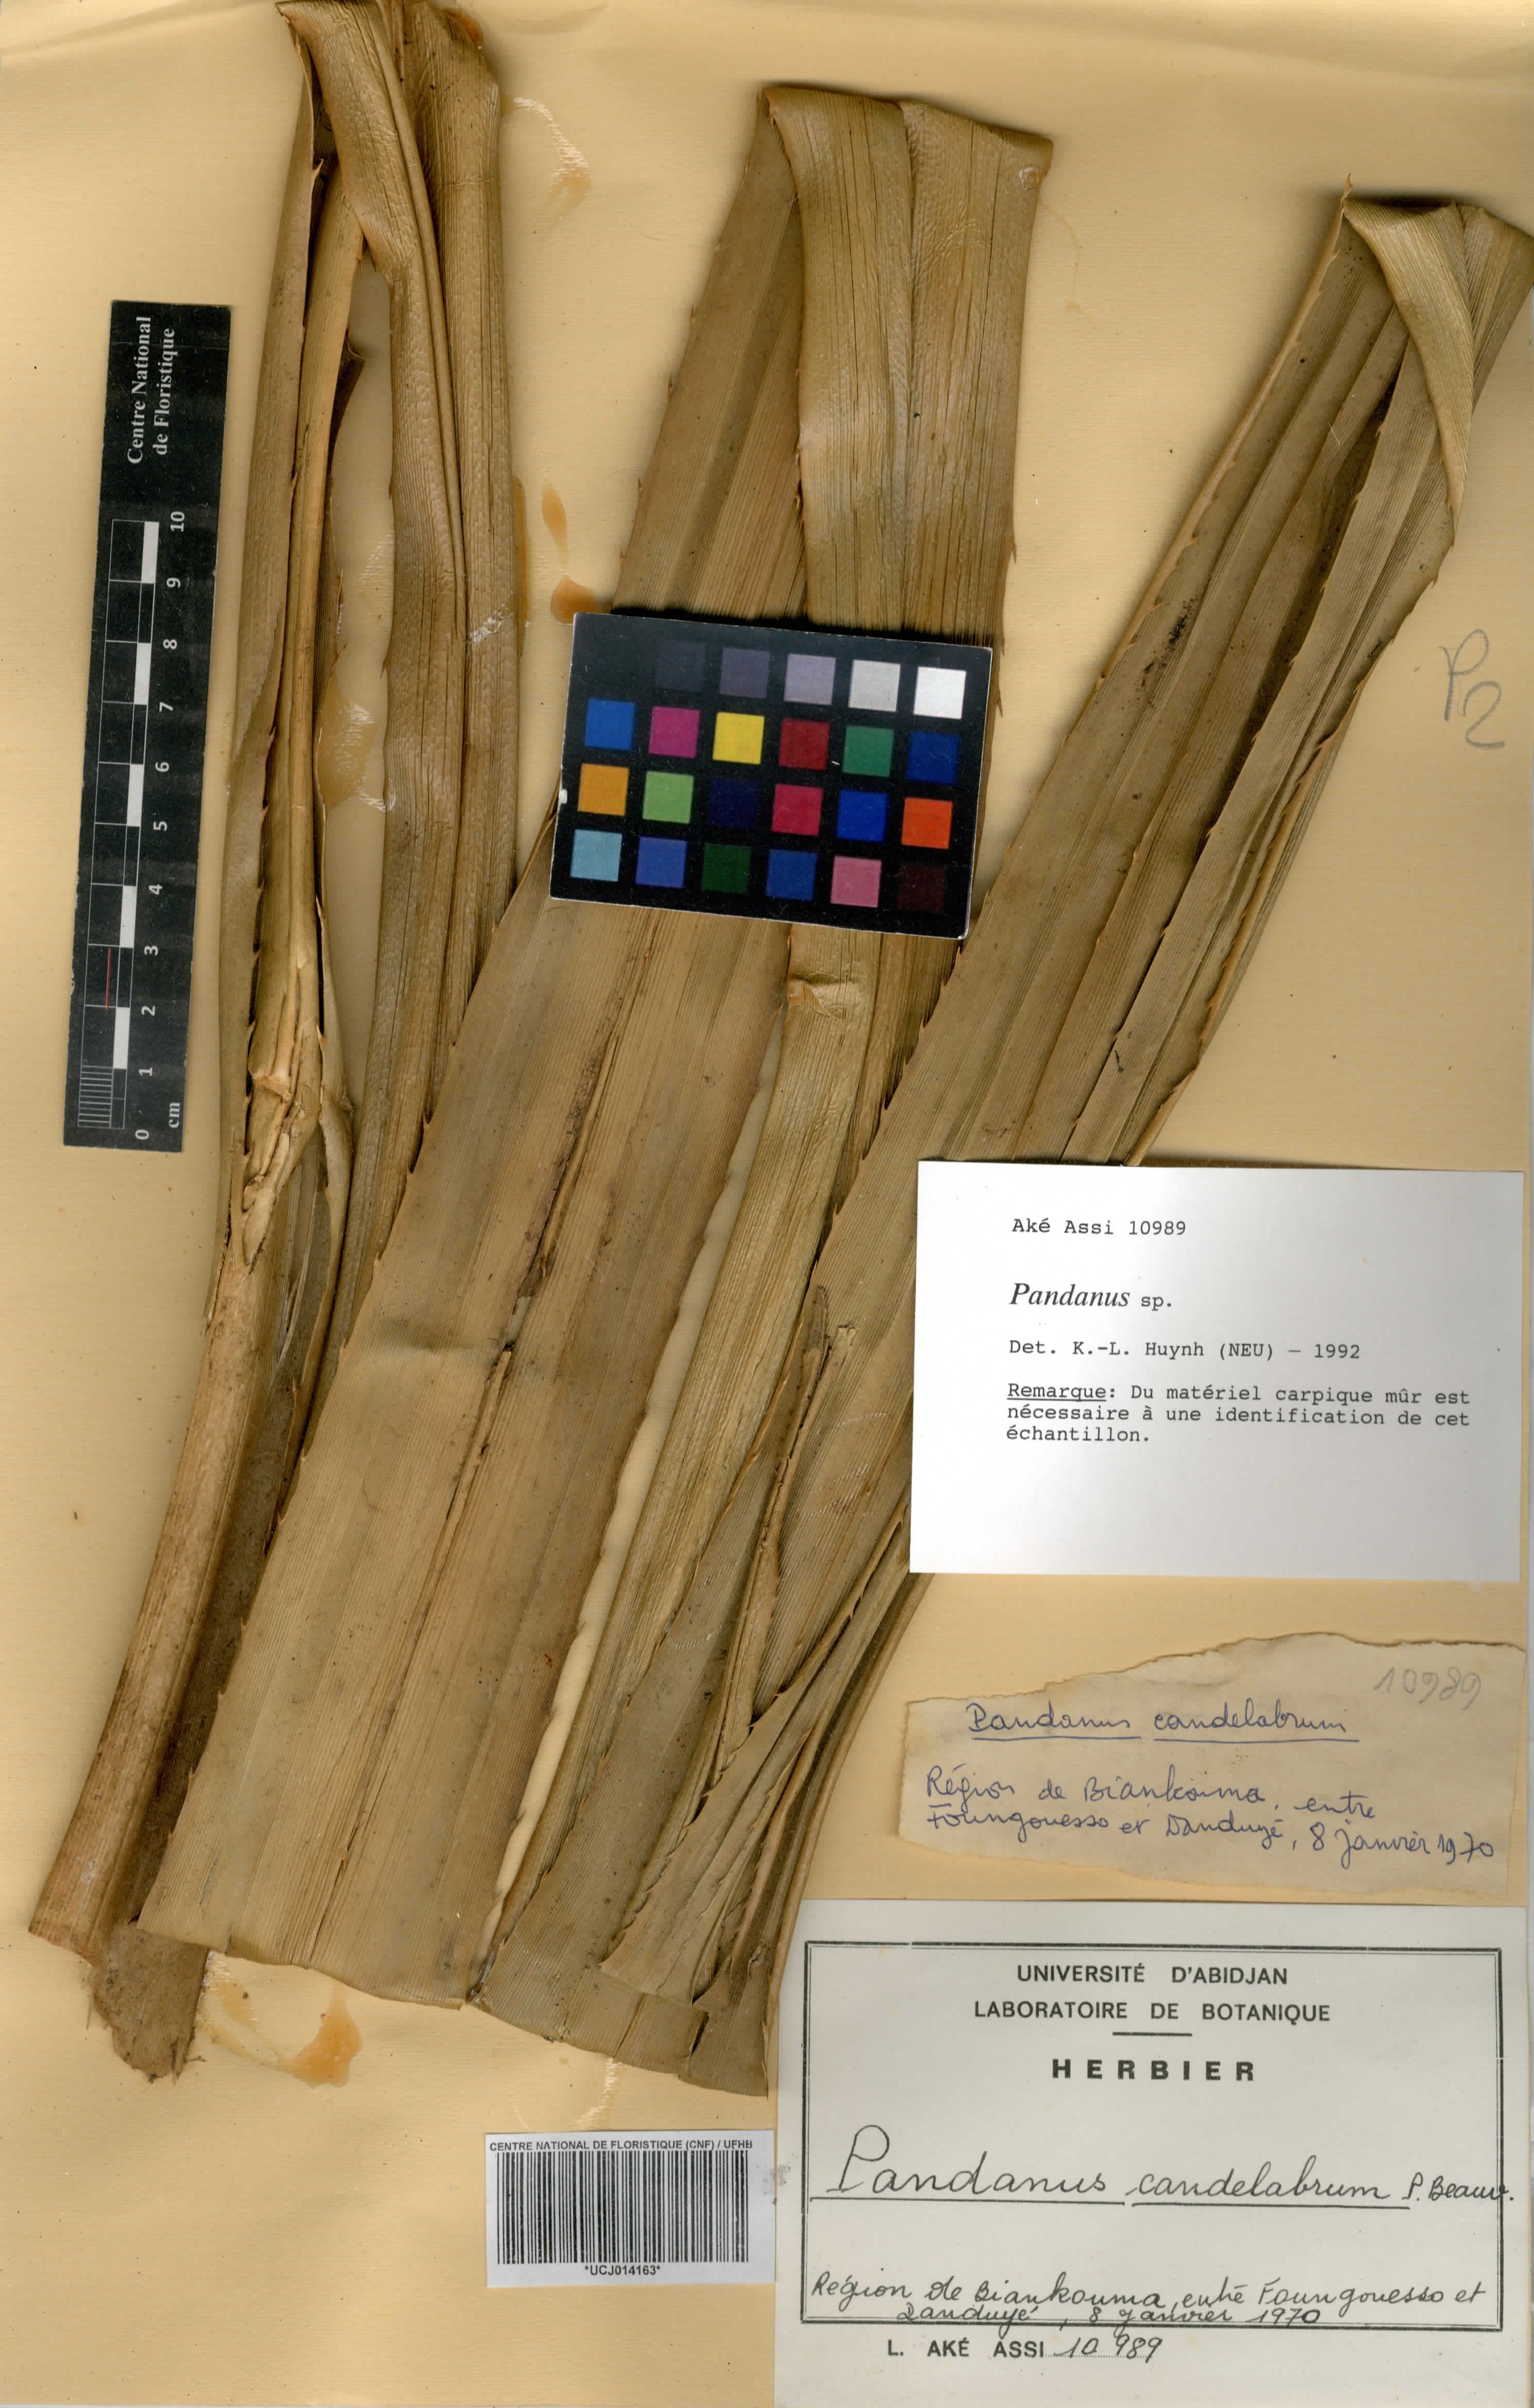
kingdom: Plantae
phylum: Tracheophyta
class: Liliopsida
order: Pandanales
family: Pandanaceae
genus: Pandanus
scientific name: Pandanus candelabrum
